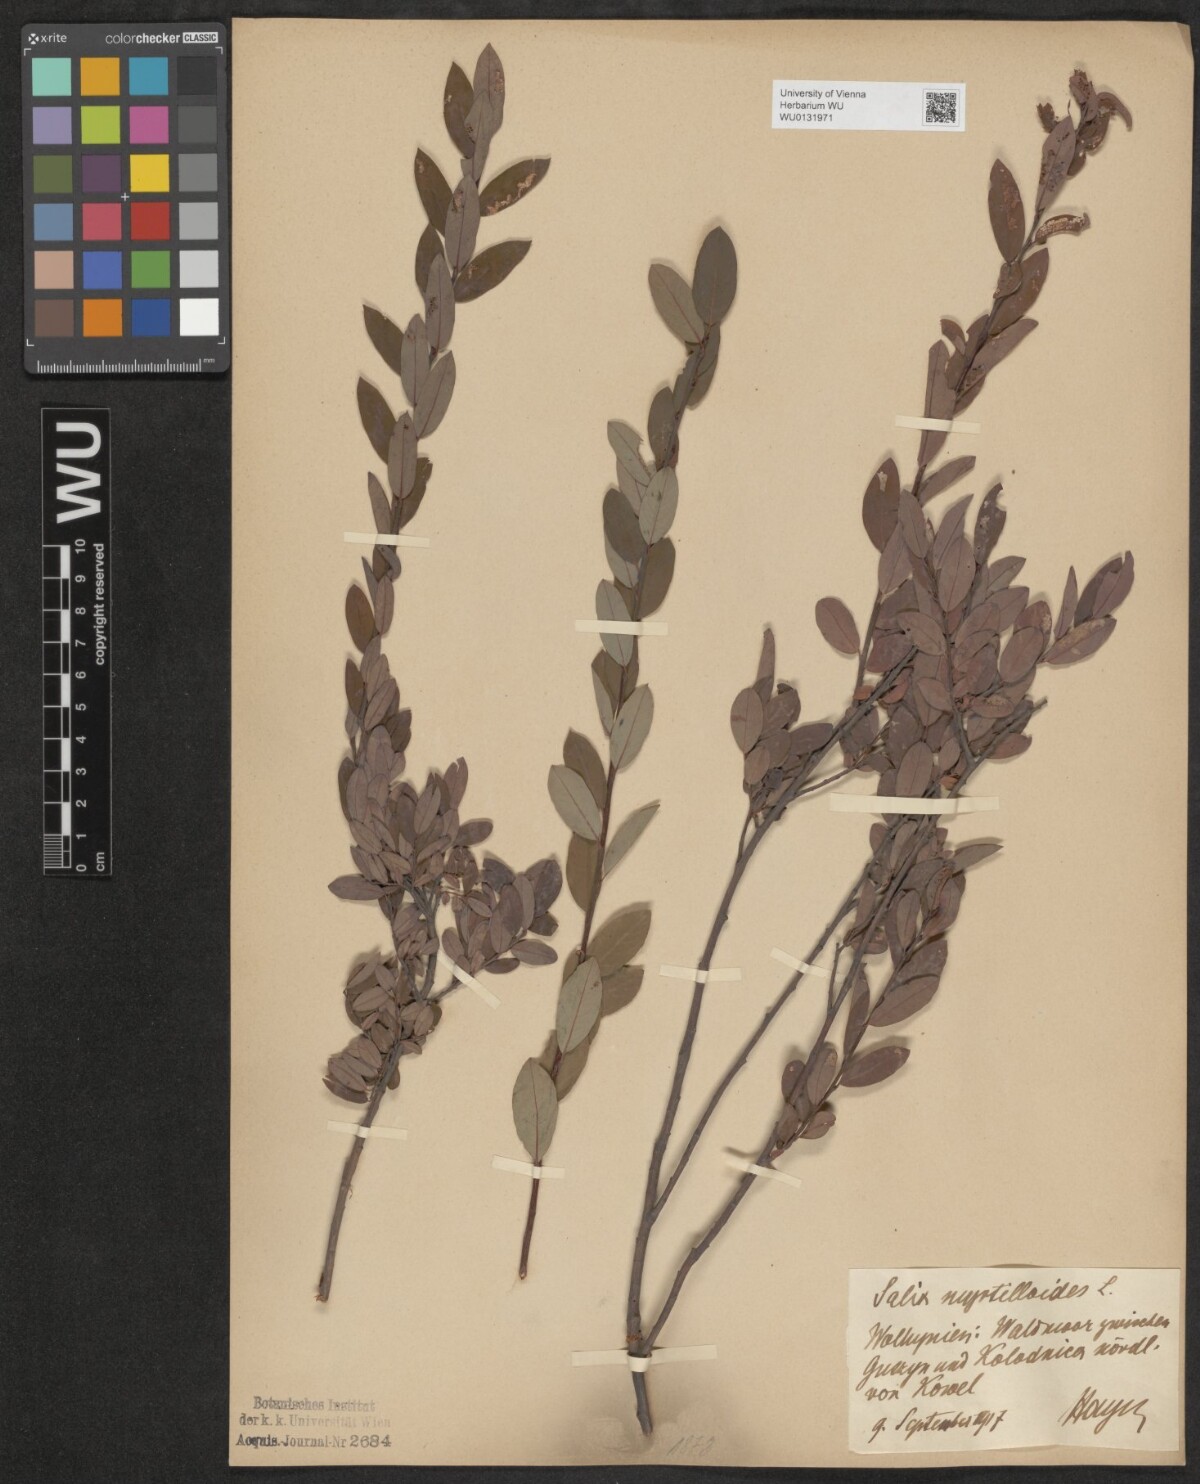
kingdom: Plantae
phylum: Tracheophyta
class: Magnoliopsida
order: Malpighiales
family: Salicaceae
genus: Salix
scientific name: Salix myrtilloides
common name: Myrtle-leaved willow
